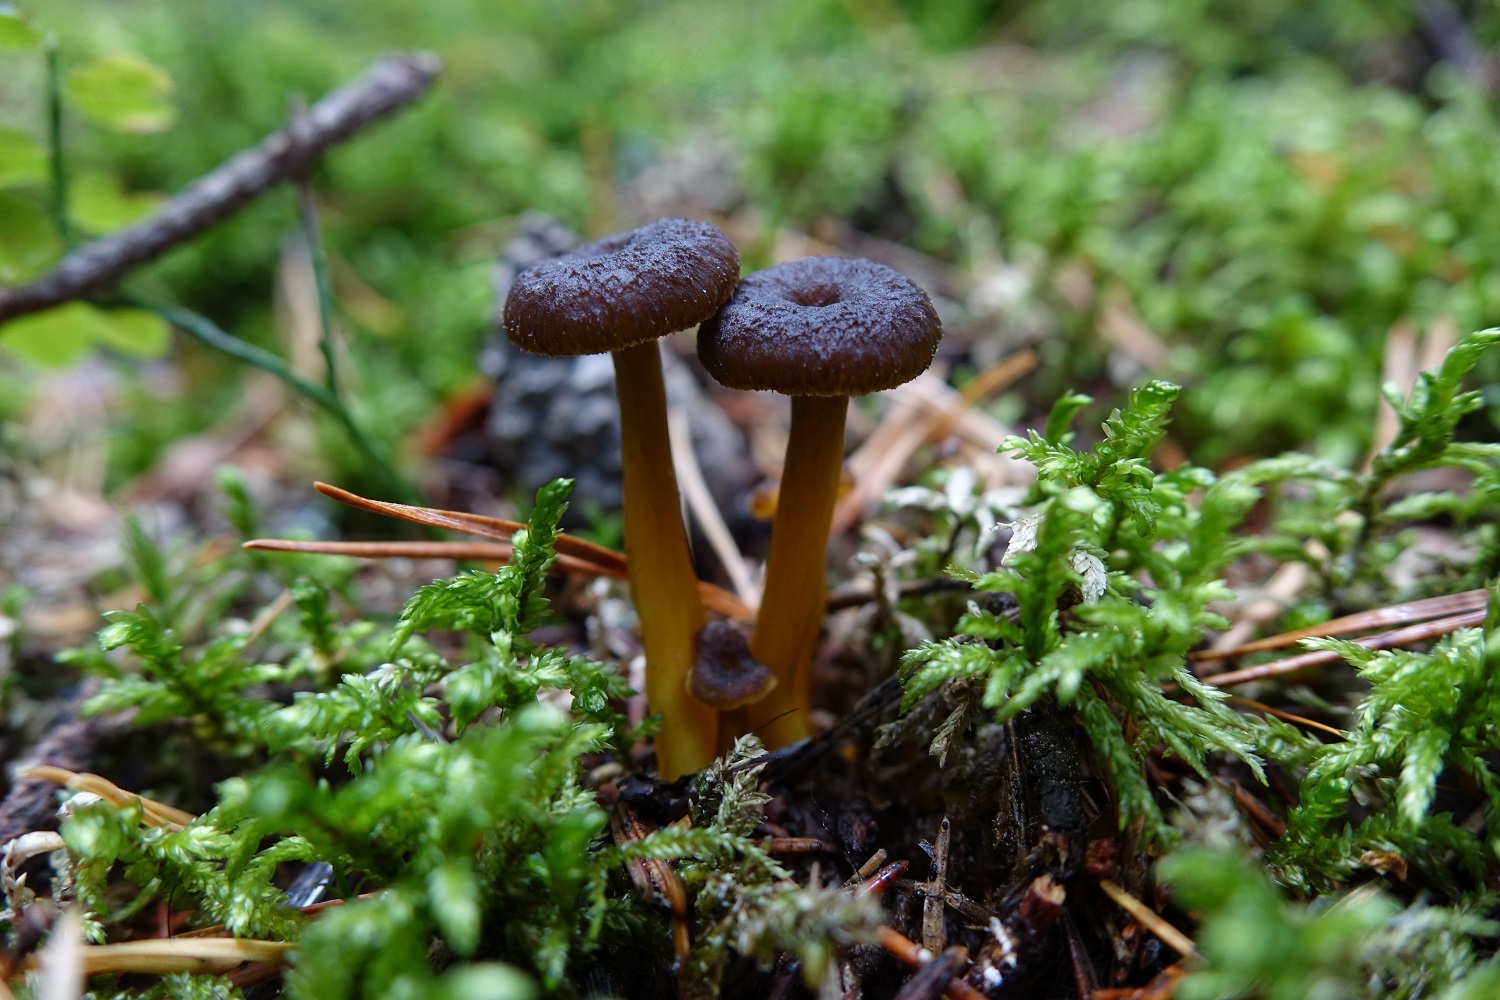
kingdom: Fungi
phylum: Basidiomycota
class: Agaricomycetes
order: Cantharellales
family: Hydnaceae
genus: Craterellus
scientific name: Craterellus tubaeformis
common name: Yellowfoot
